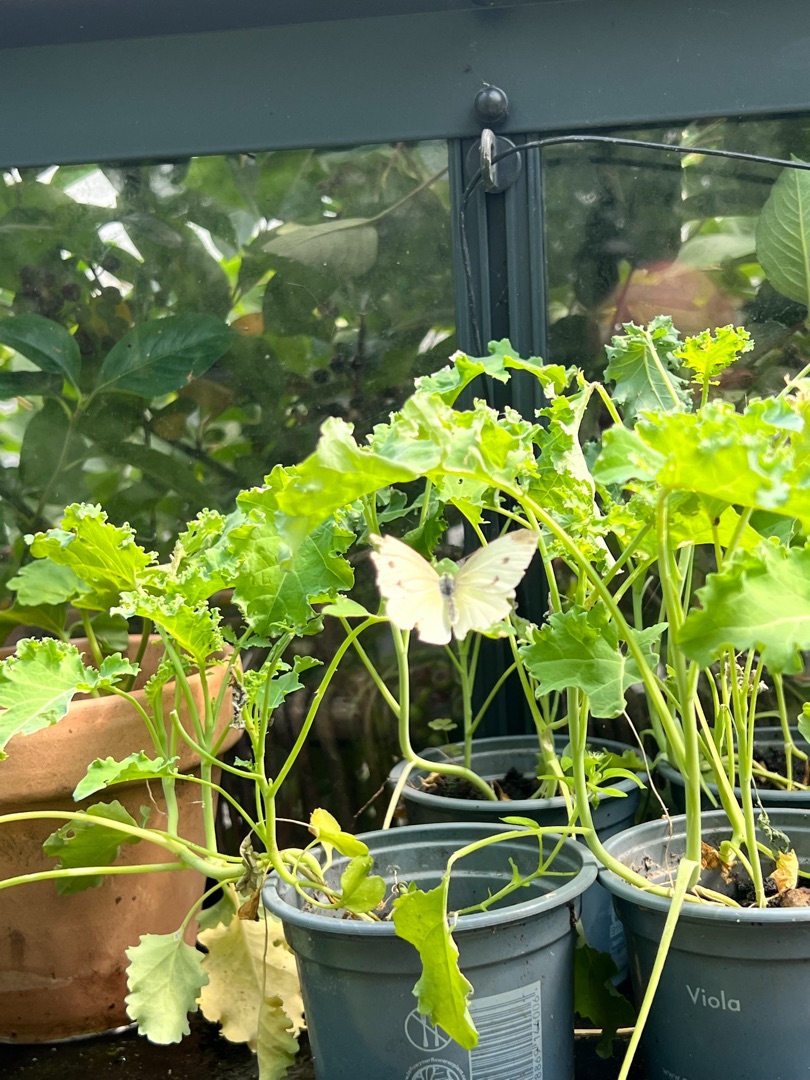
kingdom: Animalia
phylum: Arthropoda
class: Insecta
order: Lepidoptera
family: Pieridae
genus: Pieris
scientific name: Pieris rapae
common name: Lille kålsommerfugl
